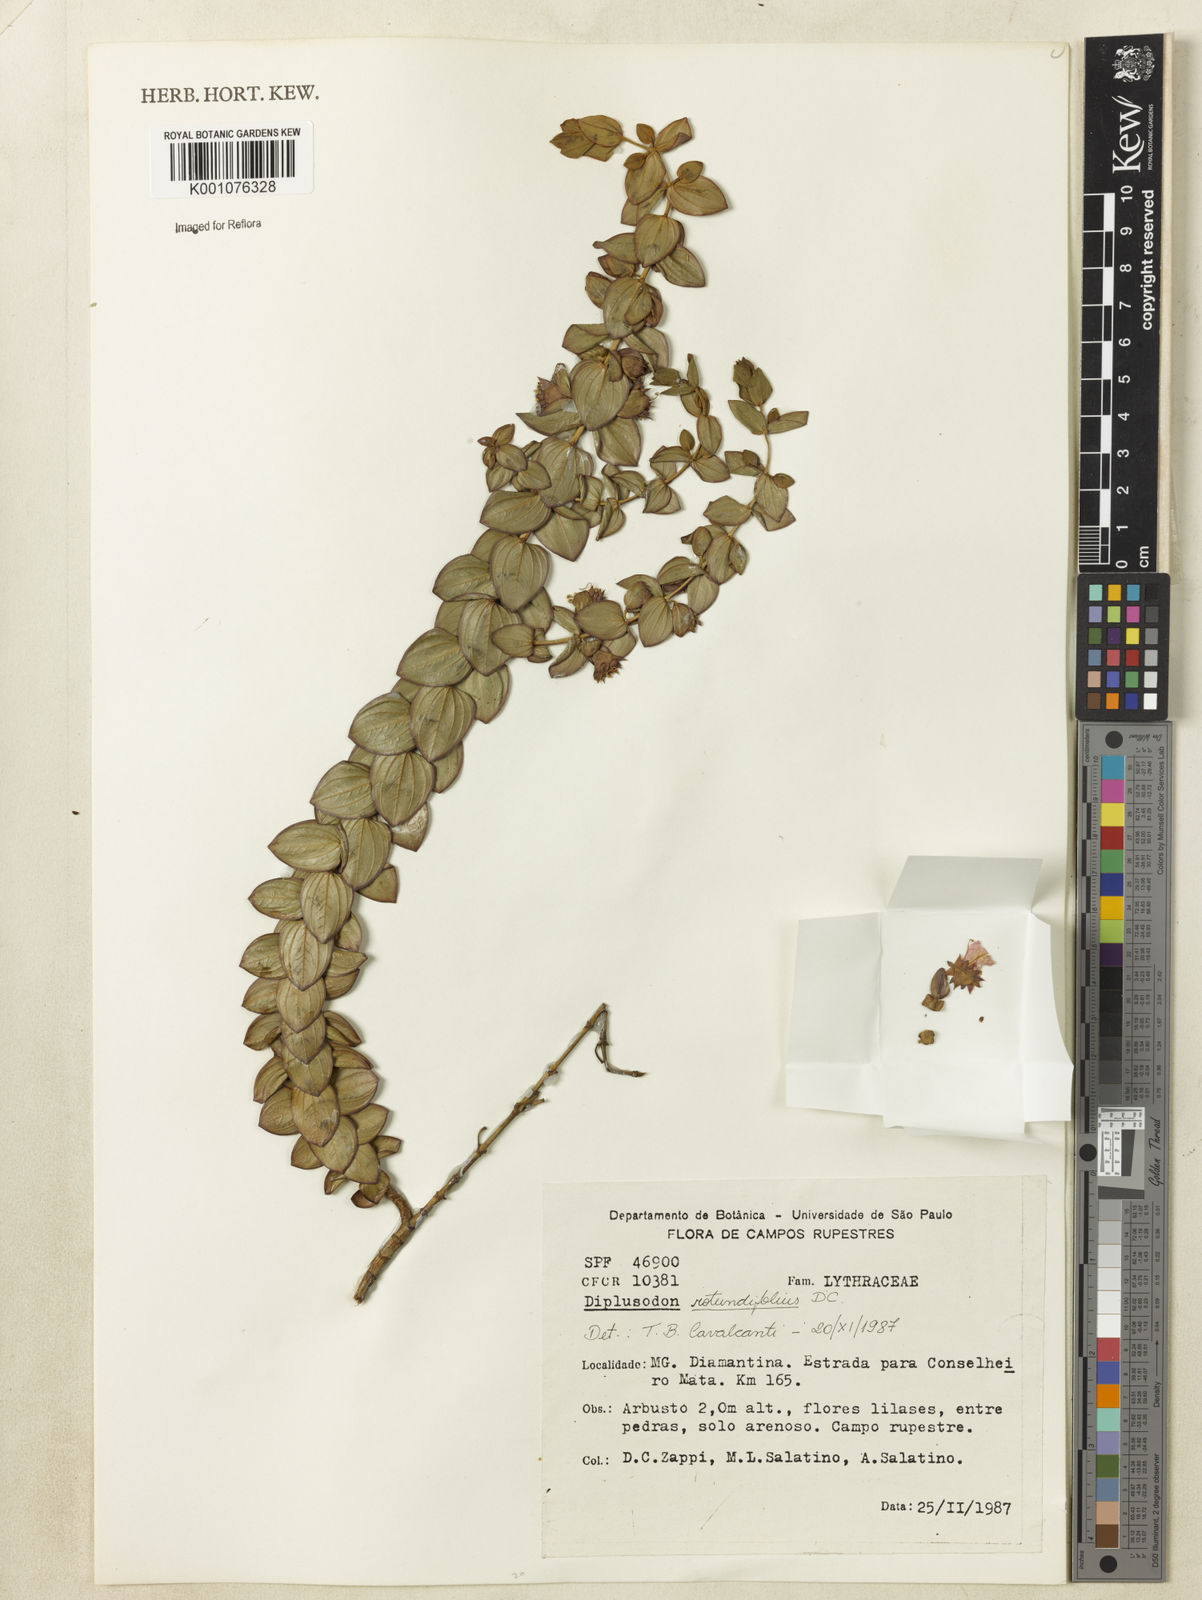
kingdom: Plantae
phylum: Tracheophyta
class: Magnoliopsida
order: Myrtales
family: Lythraceae
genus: Diplusodon
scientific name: Diplusodon rotundifolius
